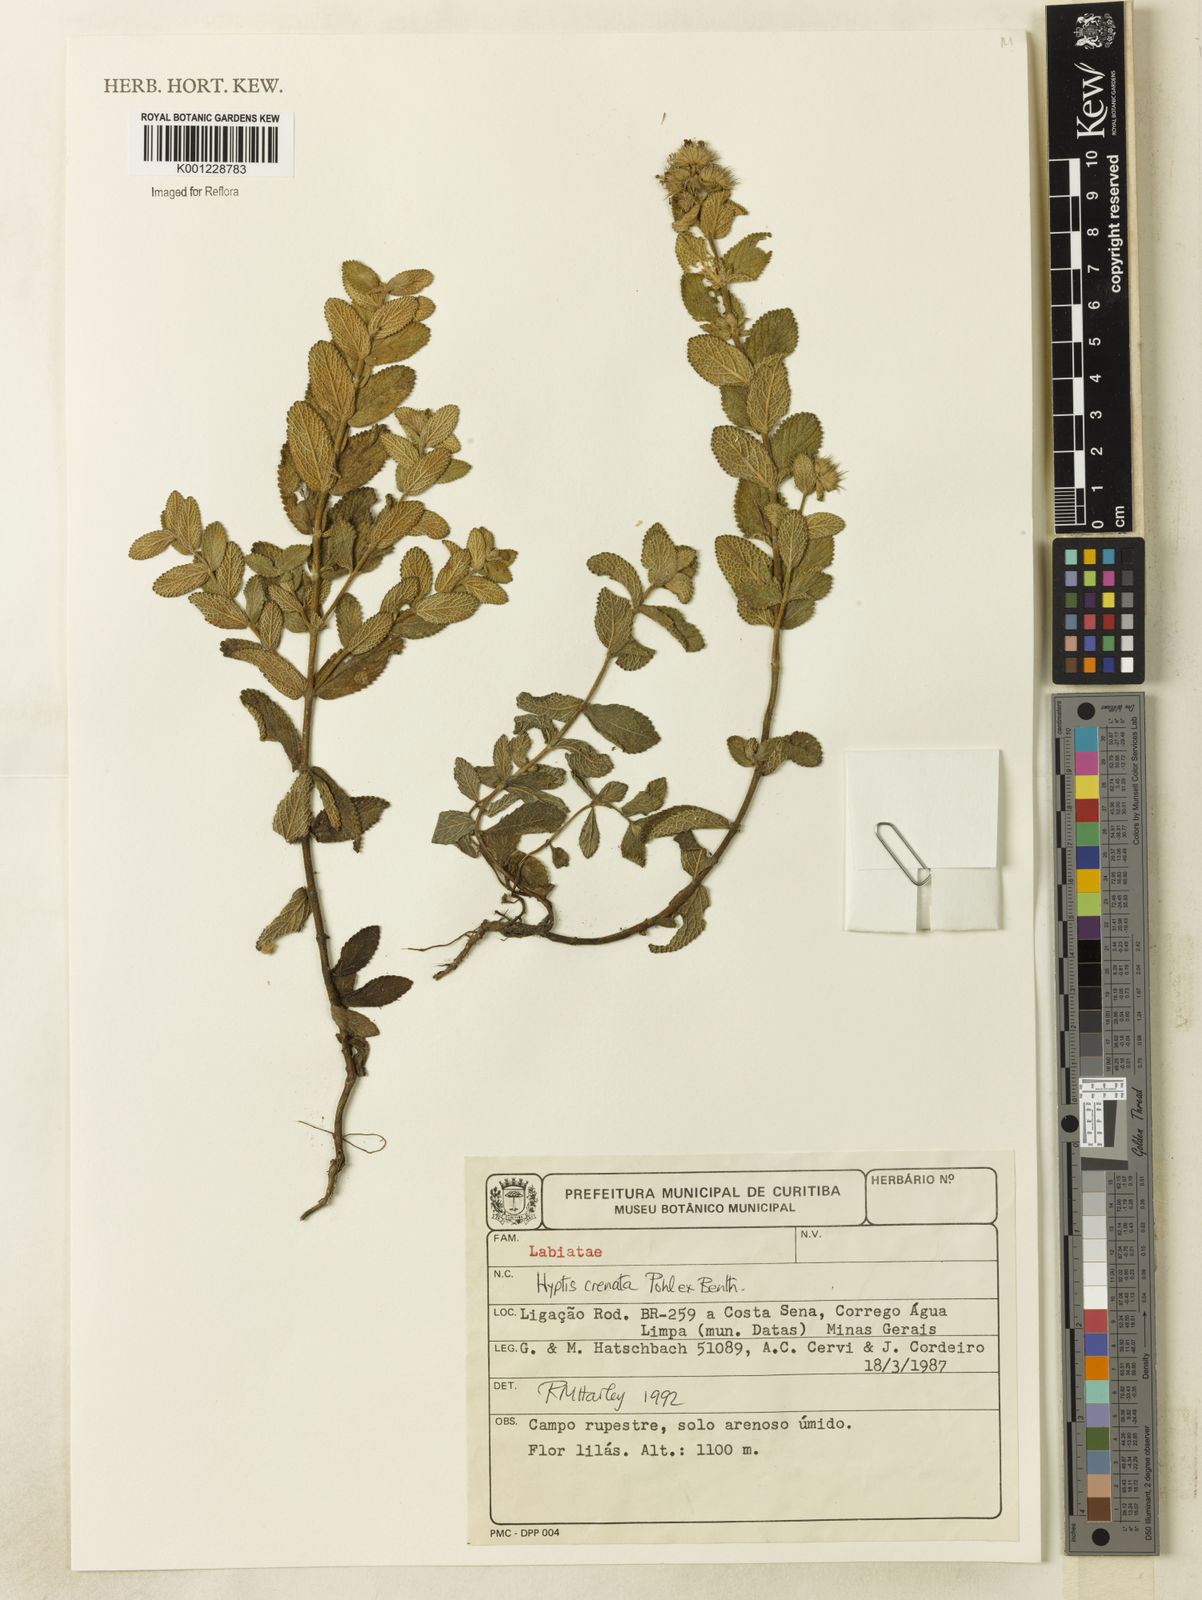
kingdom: Plantae
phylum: Tracheophyta
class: Magnoliopsida
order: Lamiales
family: Lamiaceae
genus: Hyptis
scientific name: Hyptis crenata
